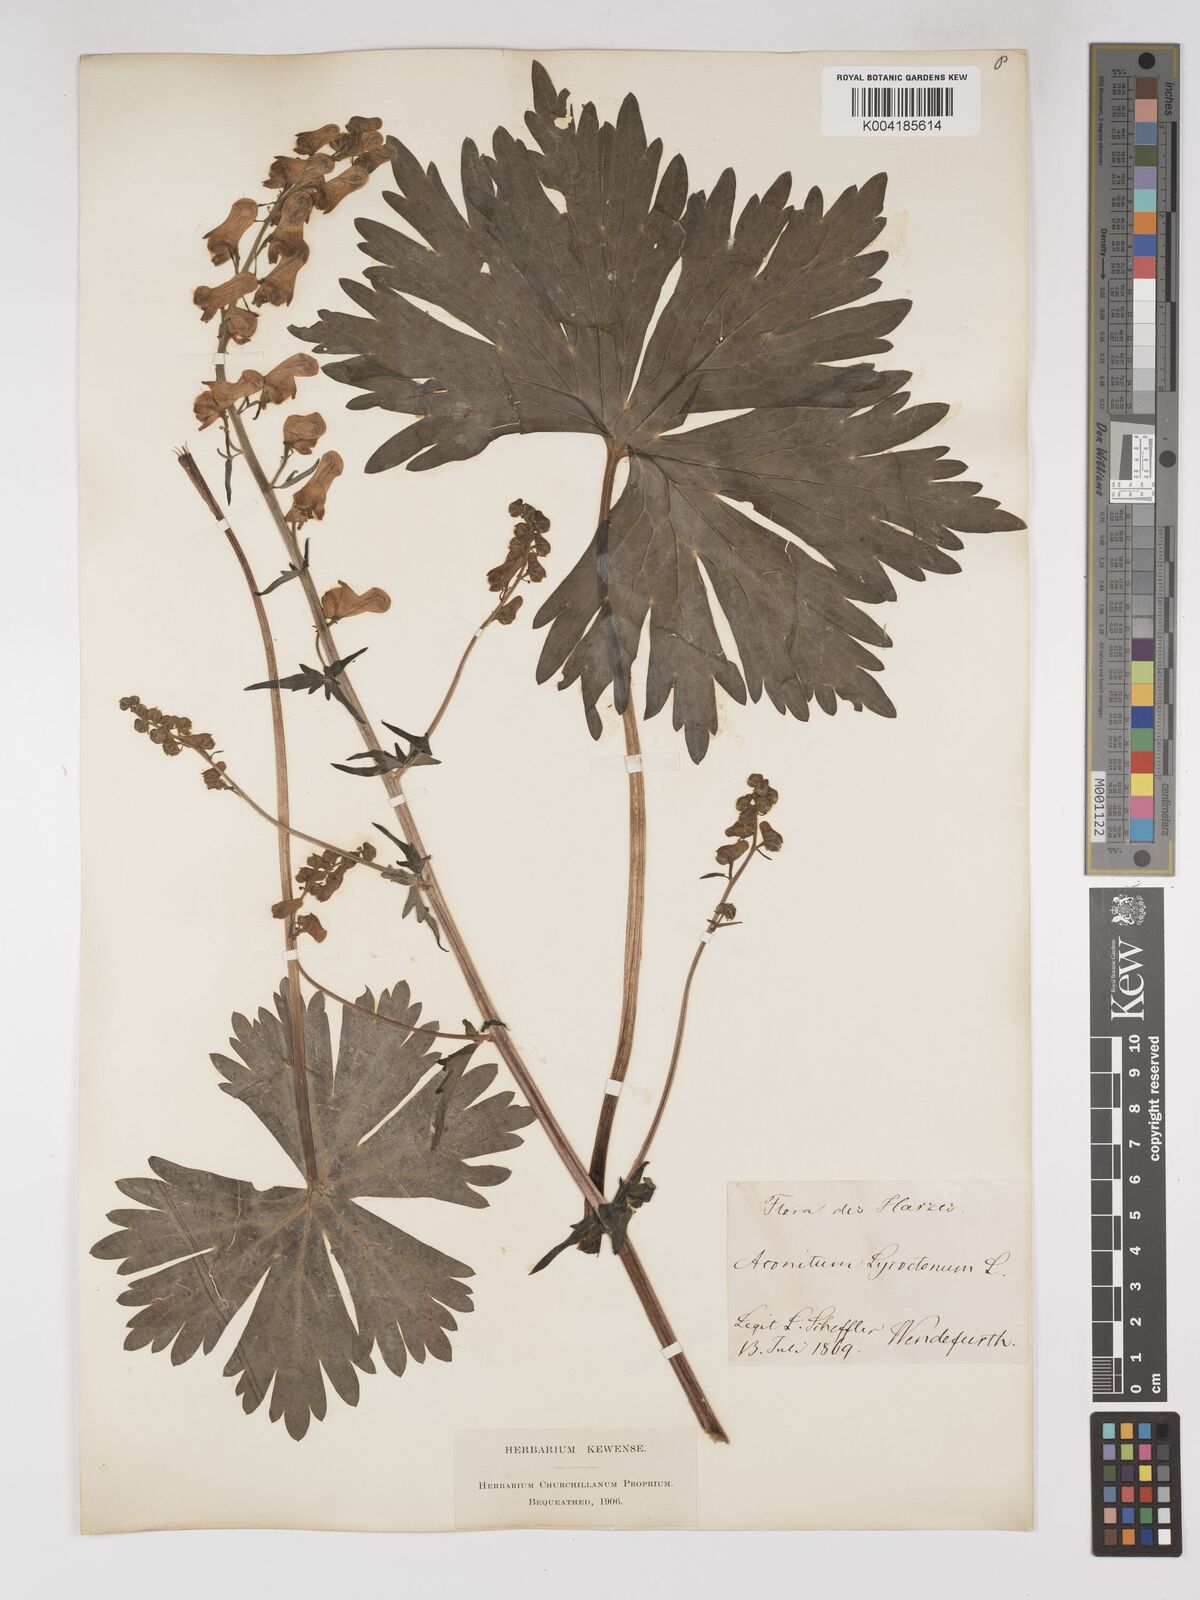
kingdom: Plantae
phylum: Tracheophyta
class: Magnoliopsida
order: Ranunculales
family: Ranunculaceae
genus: Aconitum
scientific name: Aconitum lycoctonum
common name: Wolf's-bane
